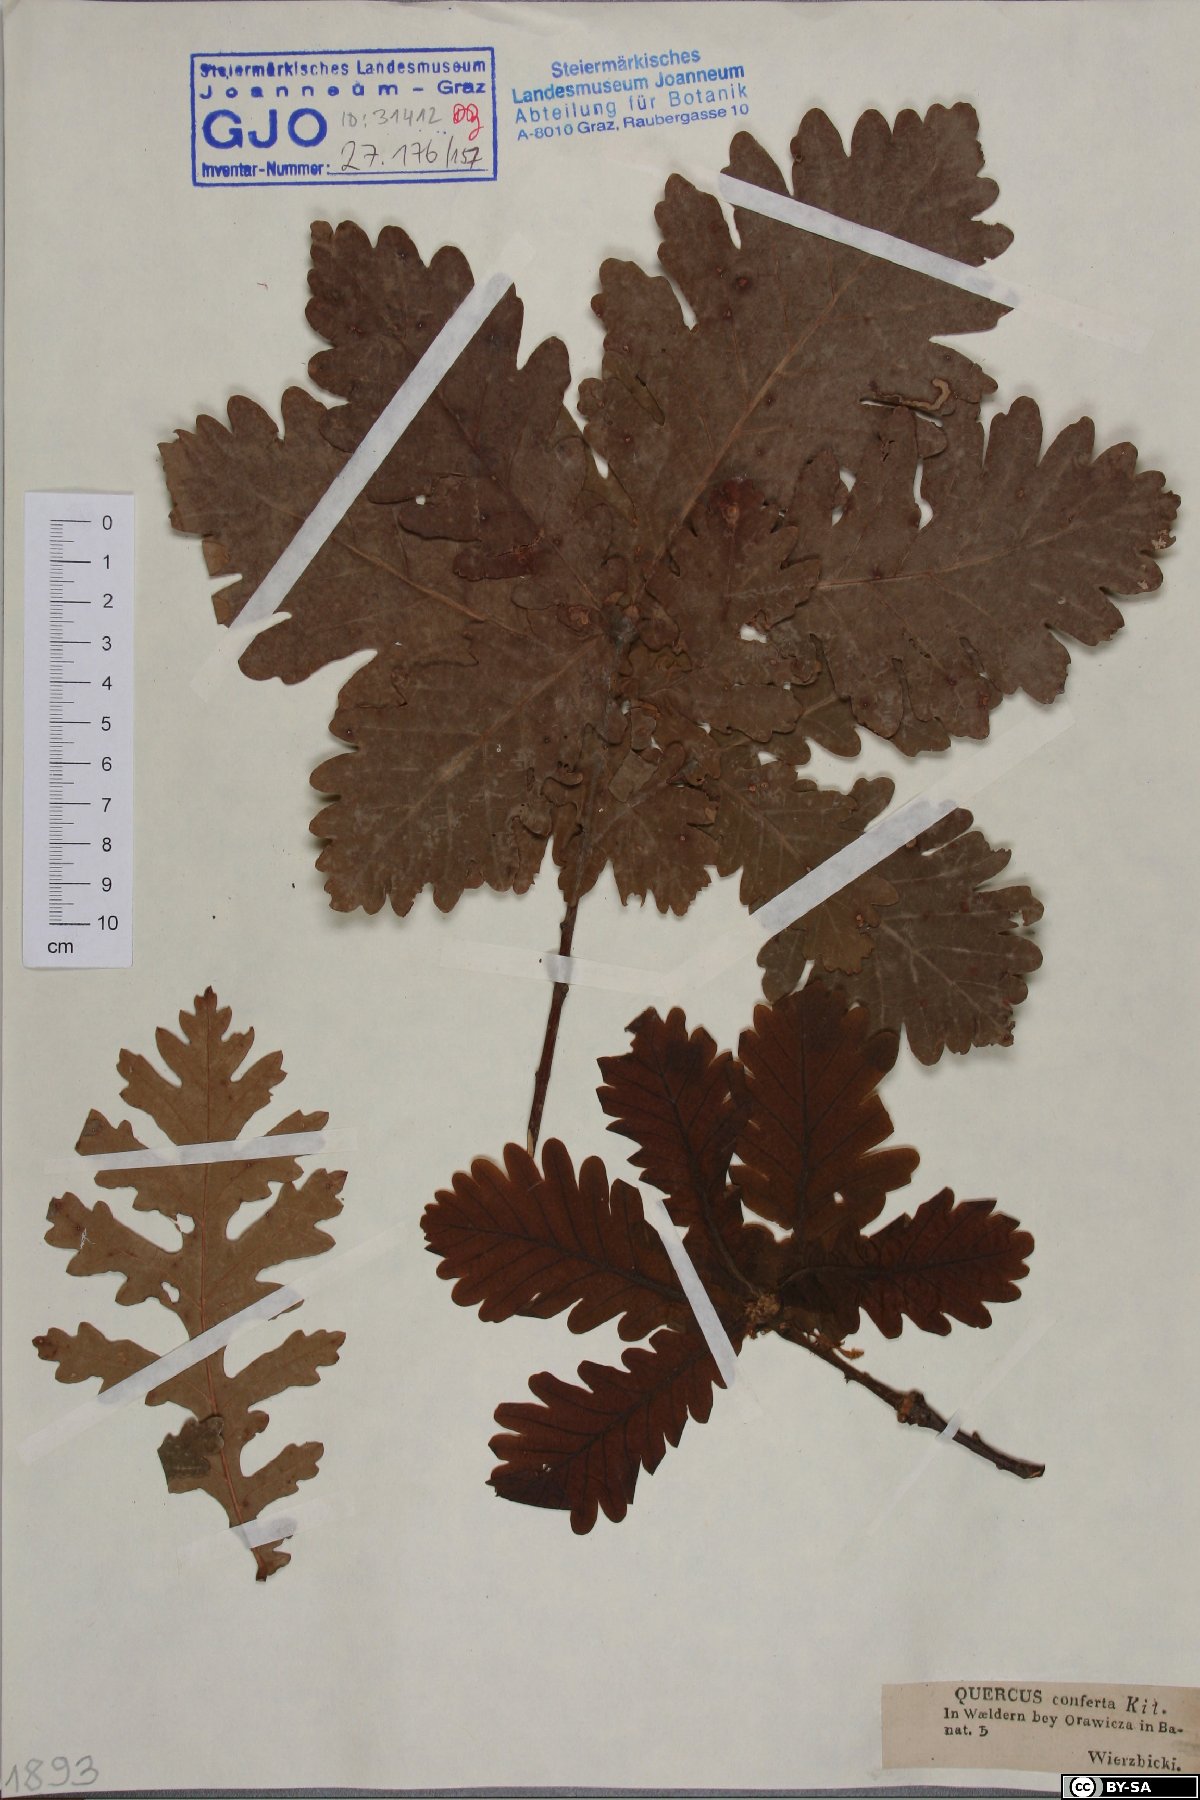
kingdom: Plantae
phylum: Tracheophyta
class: Magnoliopsida
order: Fagales
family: Fagaceae
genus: Quercus
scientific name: Quercus conferta
